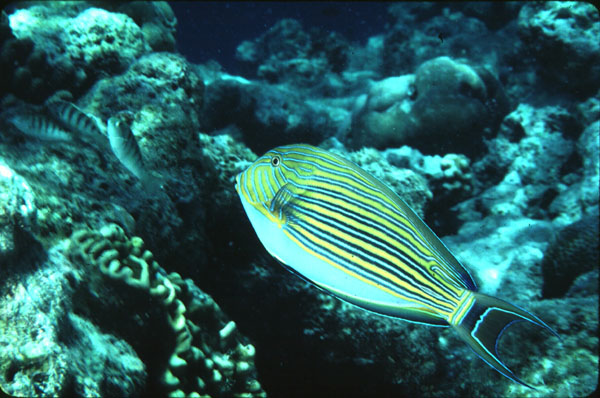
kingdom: Animalia
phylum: Chordata
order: Perciformes
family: Acanthuridae
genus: Acanthurus
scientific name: Acanthurus lineatus
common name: Striped surgeonfish
